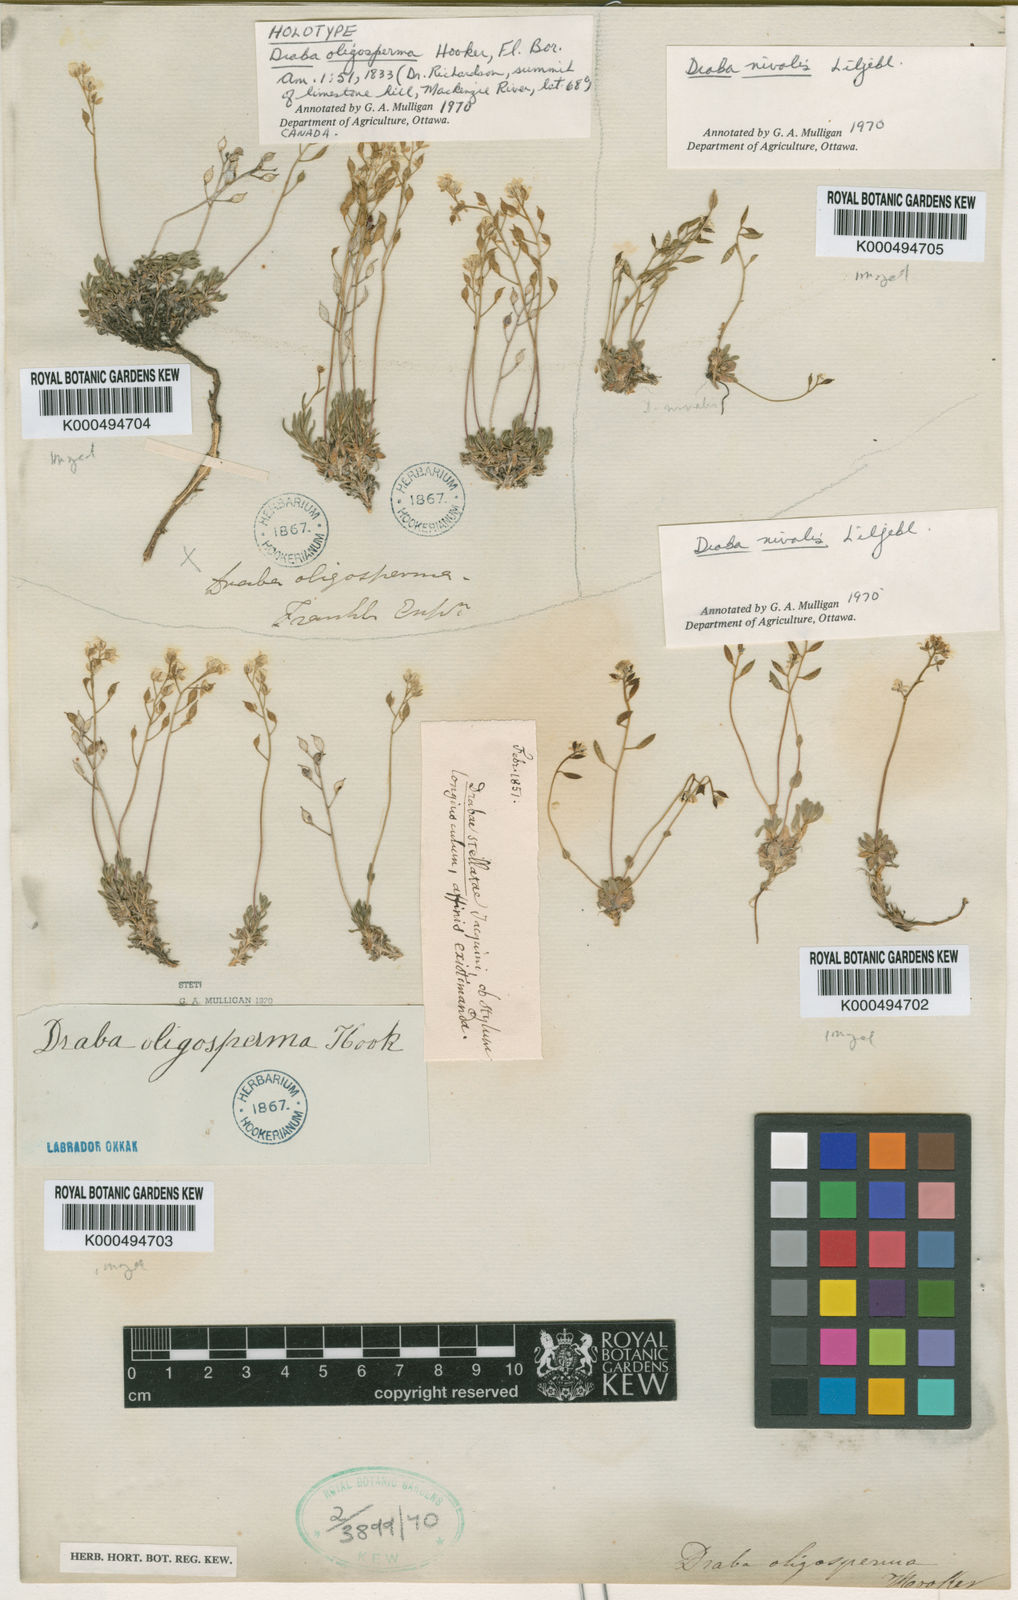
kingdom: Plantae
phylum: Tracheophyta
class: Magnoliopsida
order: Brassicales
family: Brassicaceae
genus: Draba
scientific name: Draba glacialis
